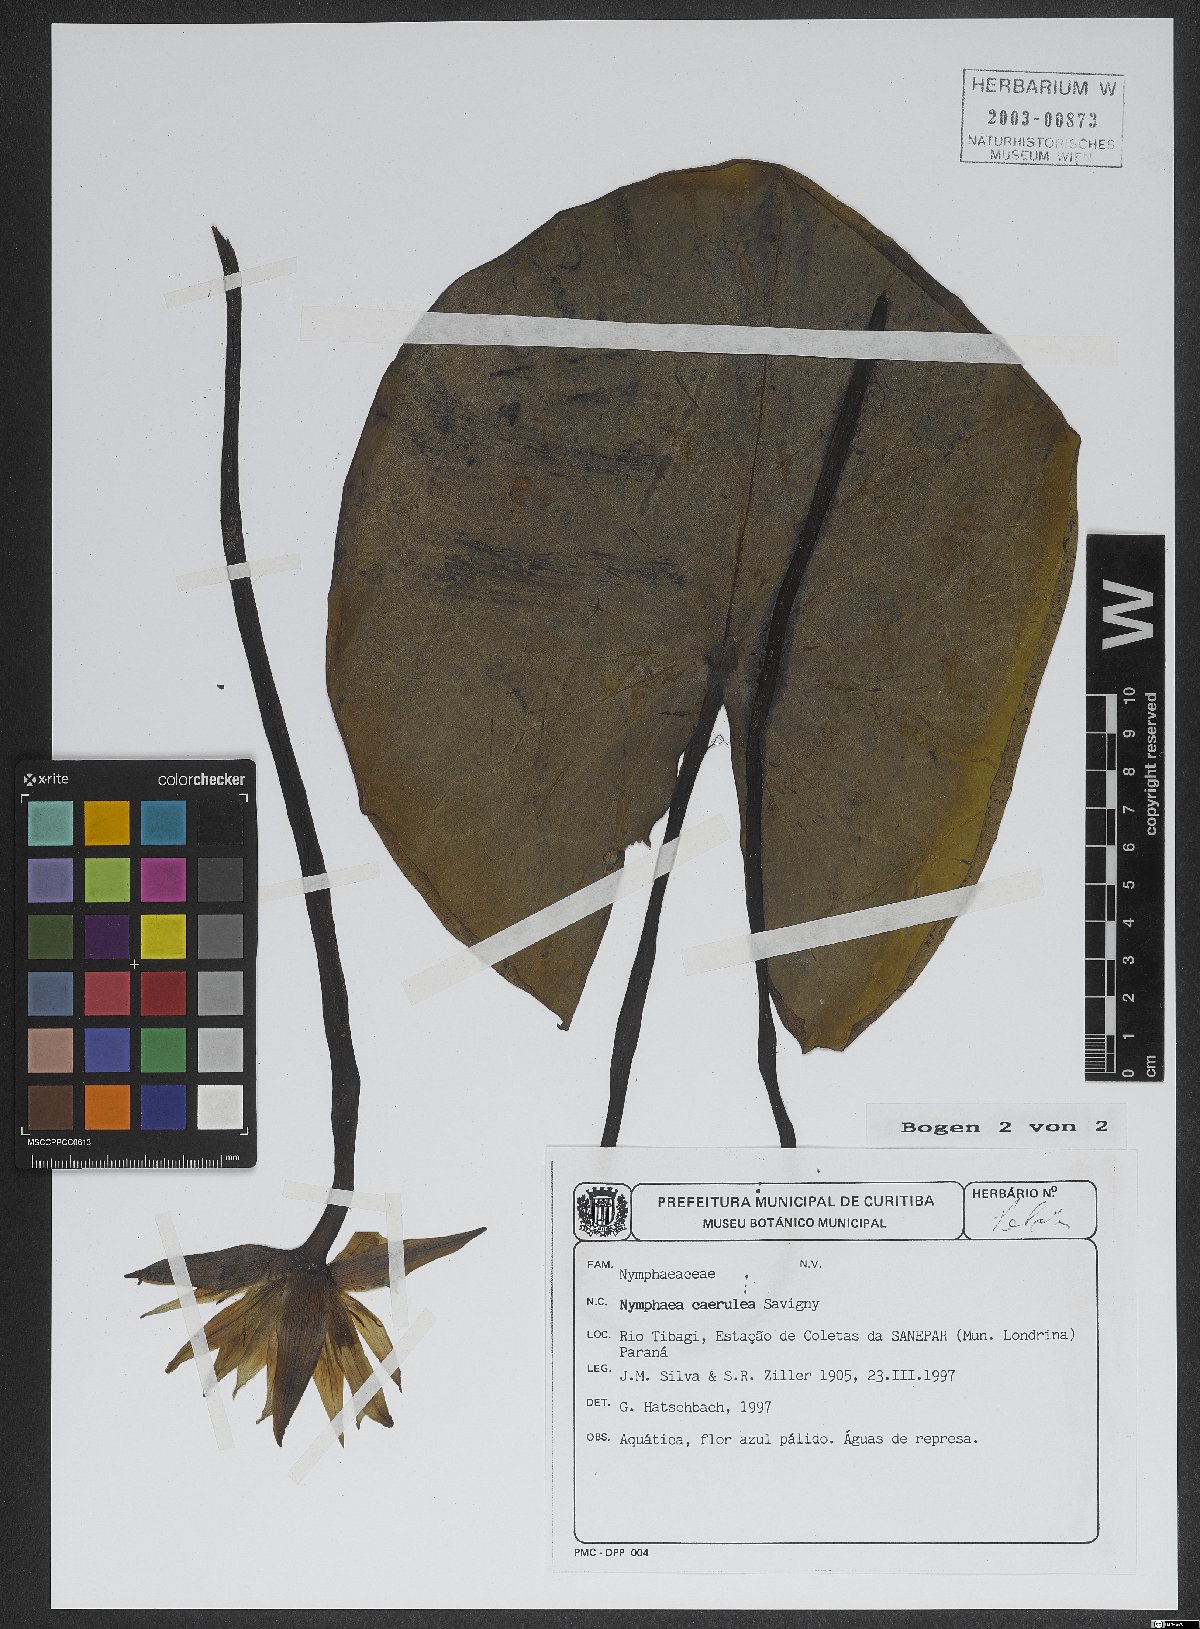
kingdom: Plantae
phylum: Tracheophyta
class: Magnoliopsida
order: Nymphaeales
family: Nymphaeaceae
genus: Nymphaea
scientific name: Nymphaea
